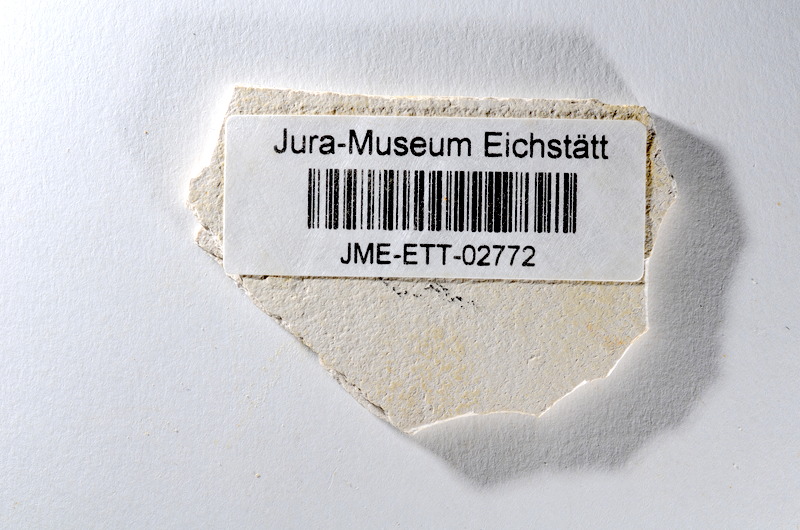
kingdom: Animalia
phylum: Chordata
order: Salmoniformes
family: Orthogonikleithridae
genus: Orthogonikleithrus
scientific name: Orthogonikleithrus hoelli
